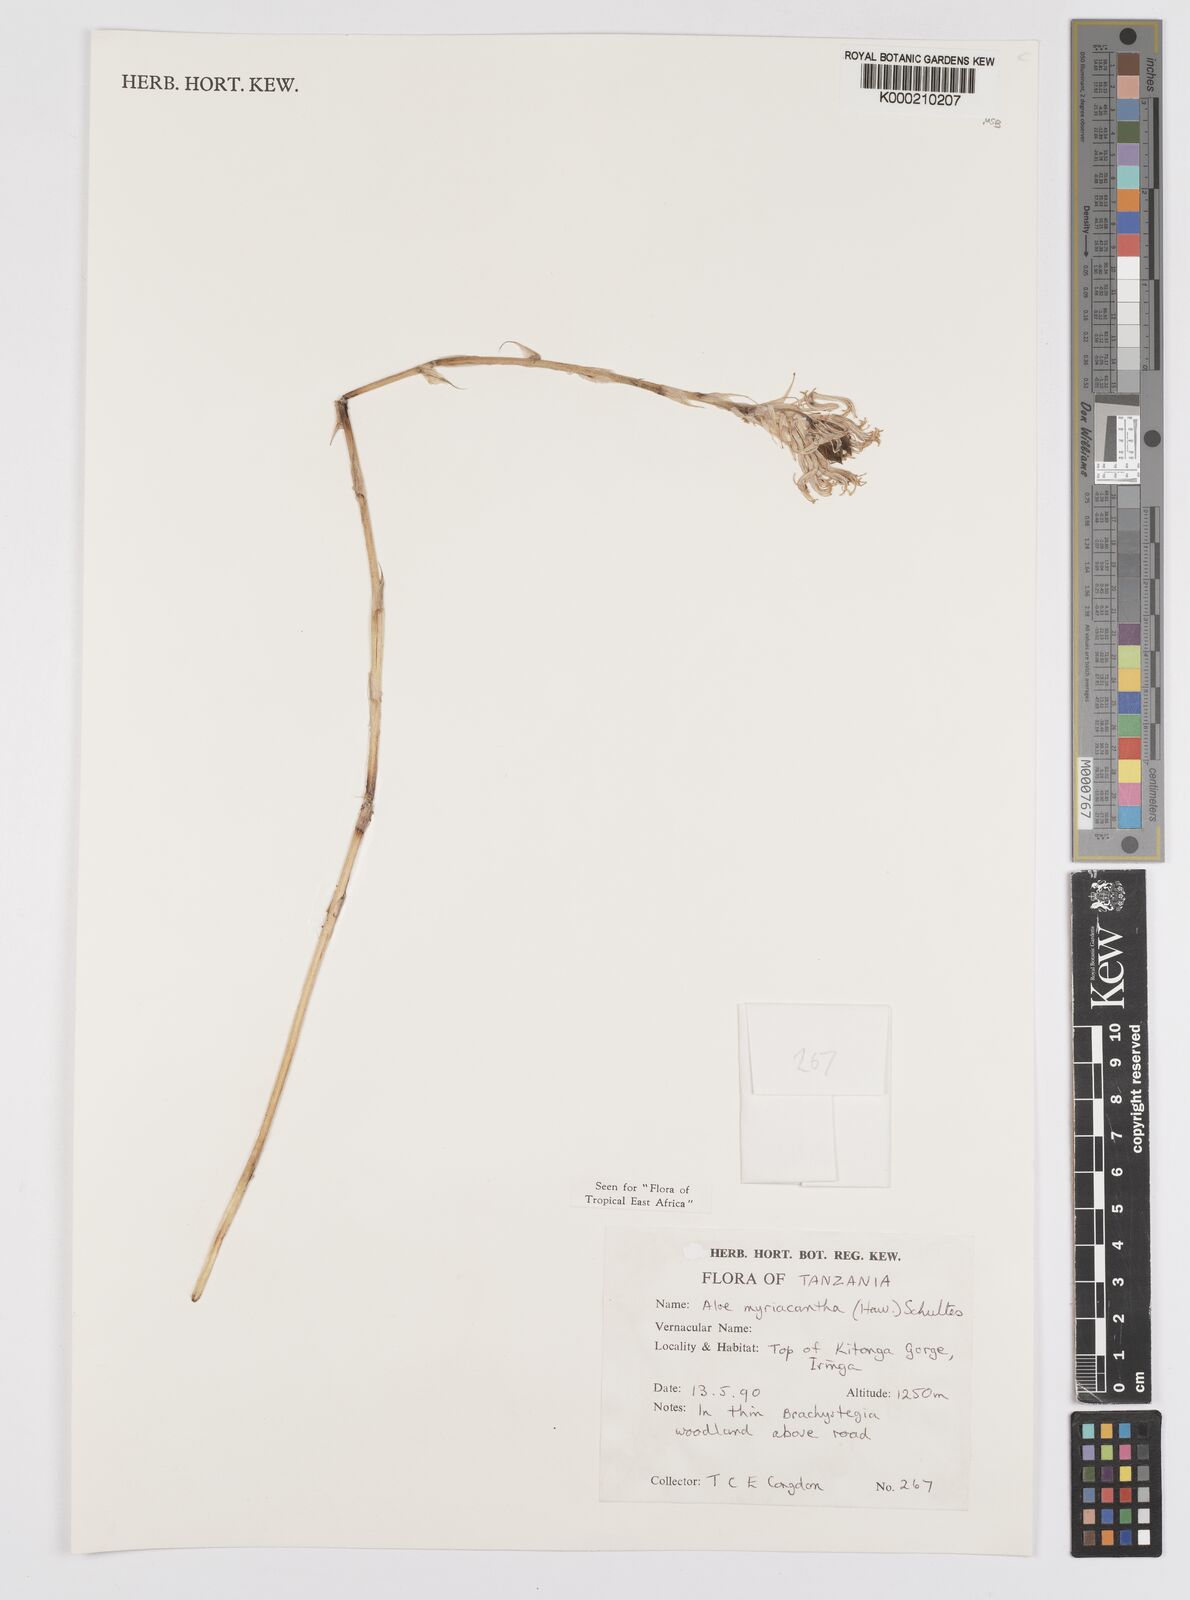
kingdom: Plantae
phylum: Tracheophyta
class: Liliopsida
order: Asparagales
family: Asphodelaceae
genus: Aloe
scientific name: Aloe
